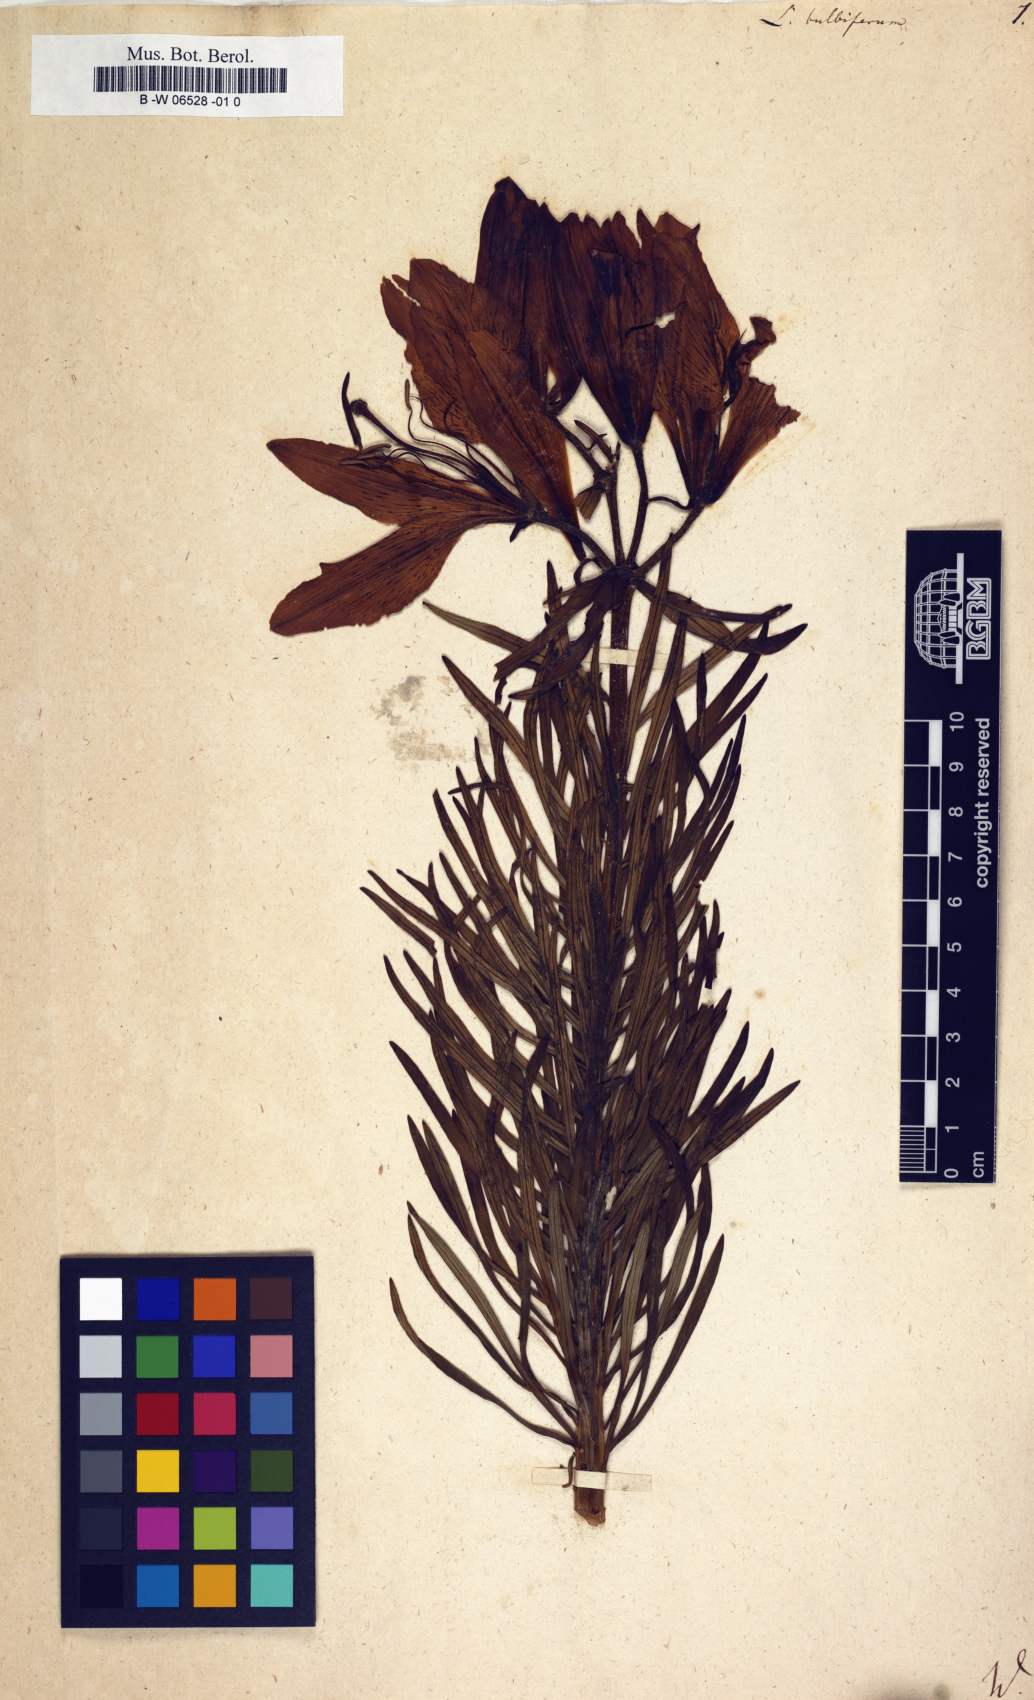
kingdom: Plantae
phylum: Tracheophyta
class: Liliopsida
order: Liliales
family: Liliaceae
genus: Lilium
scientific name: Lilium bulbiferum
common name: Orange lily
